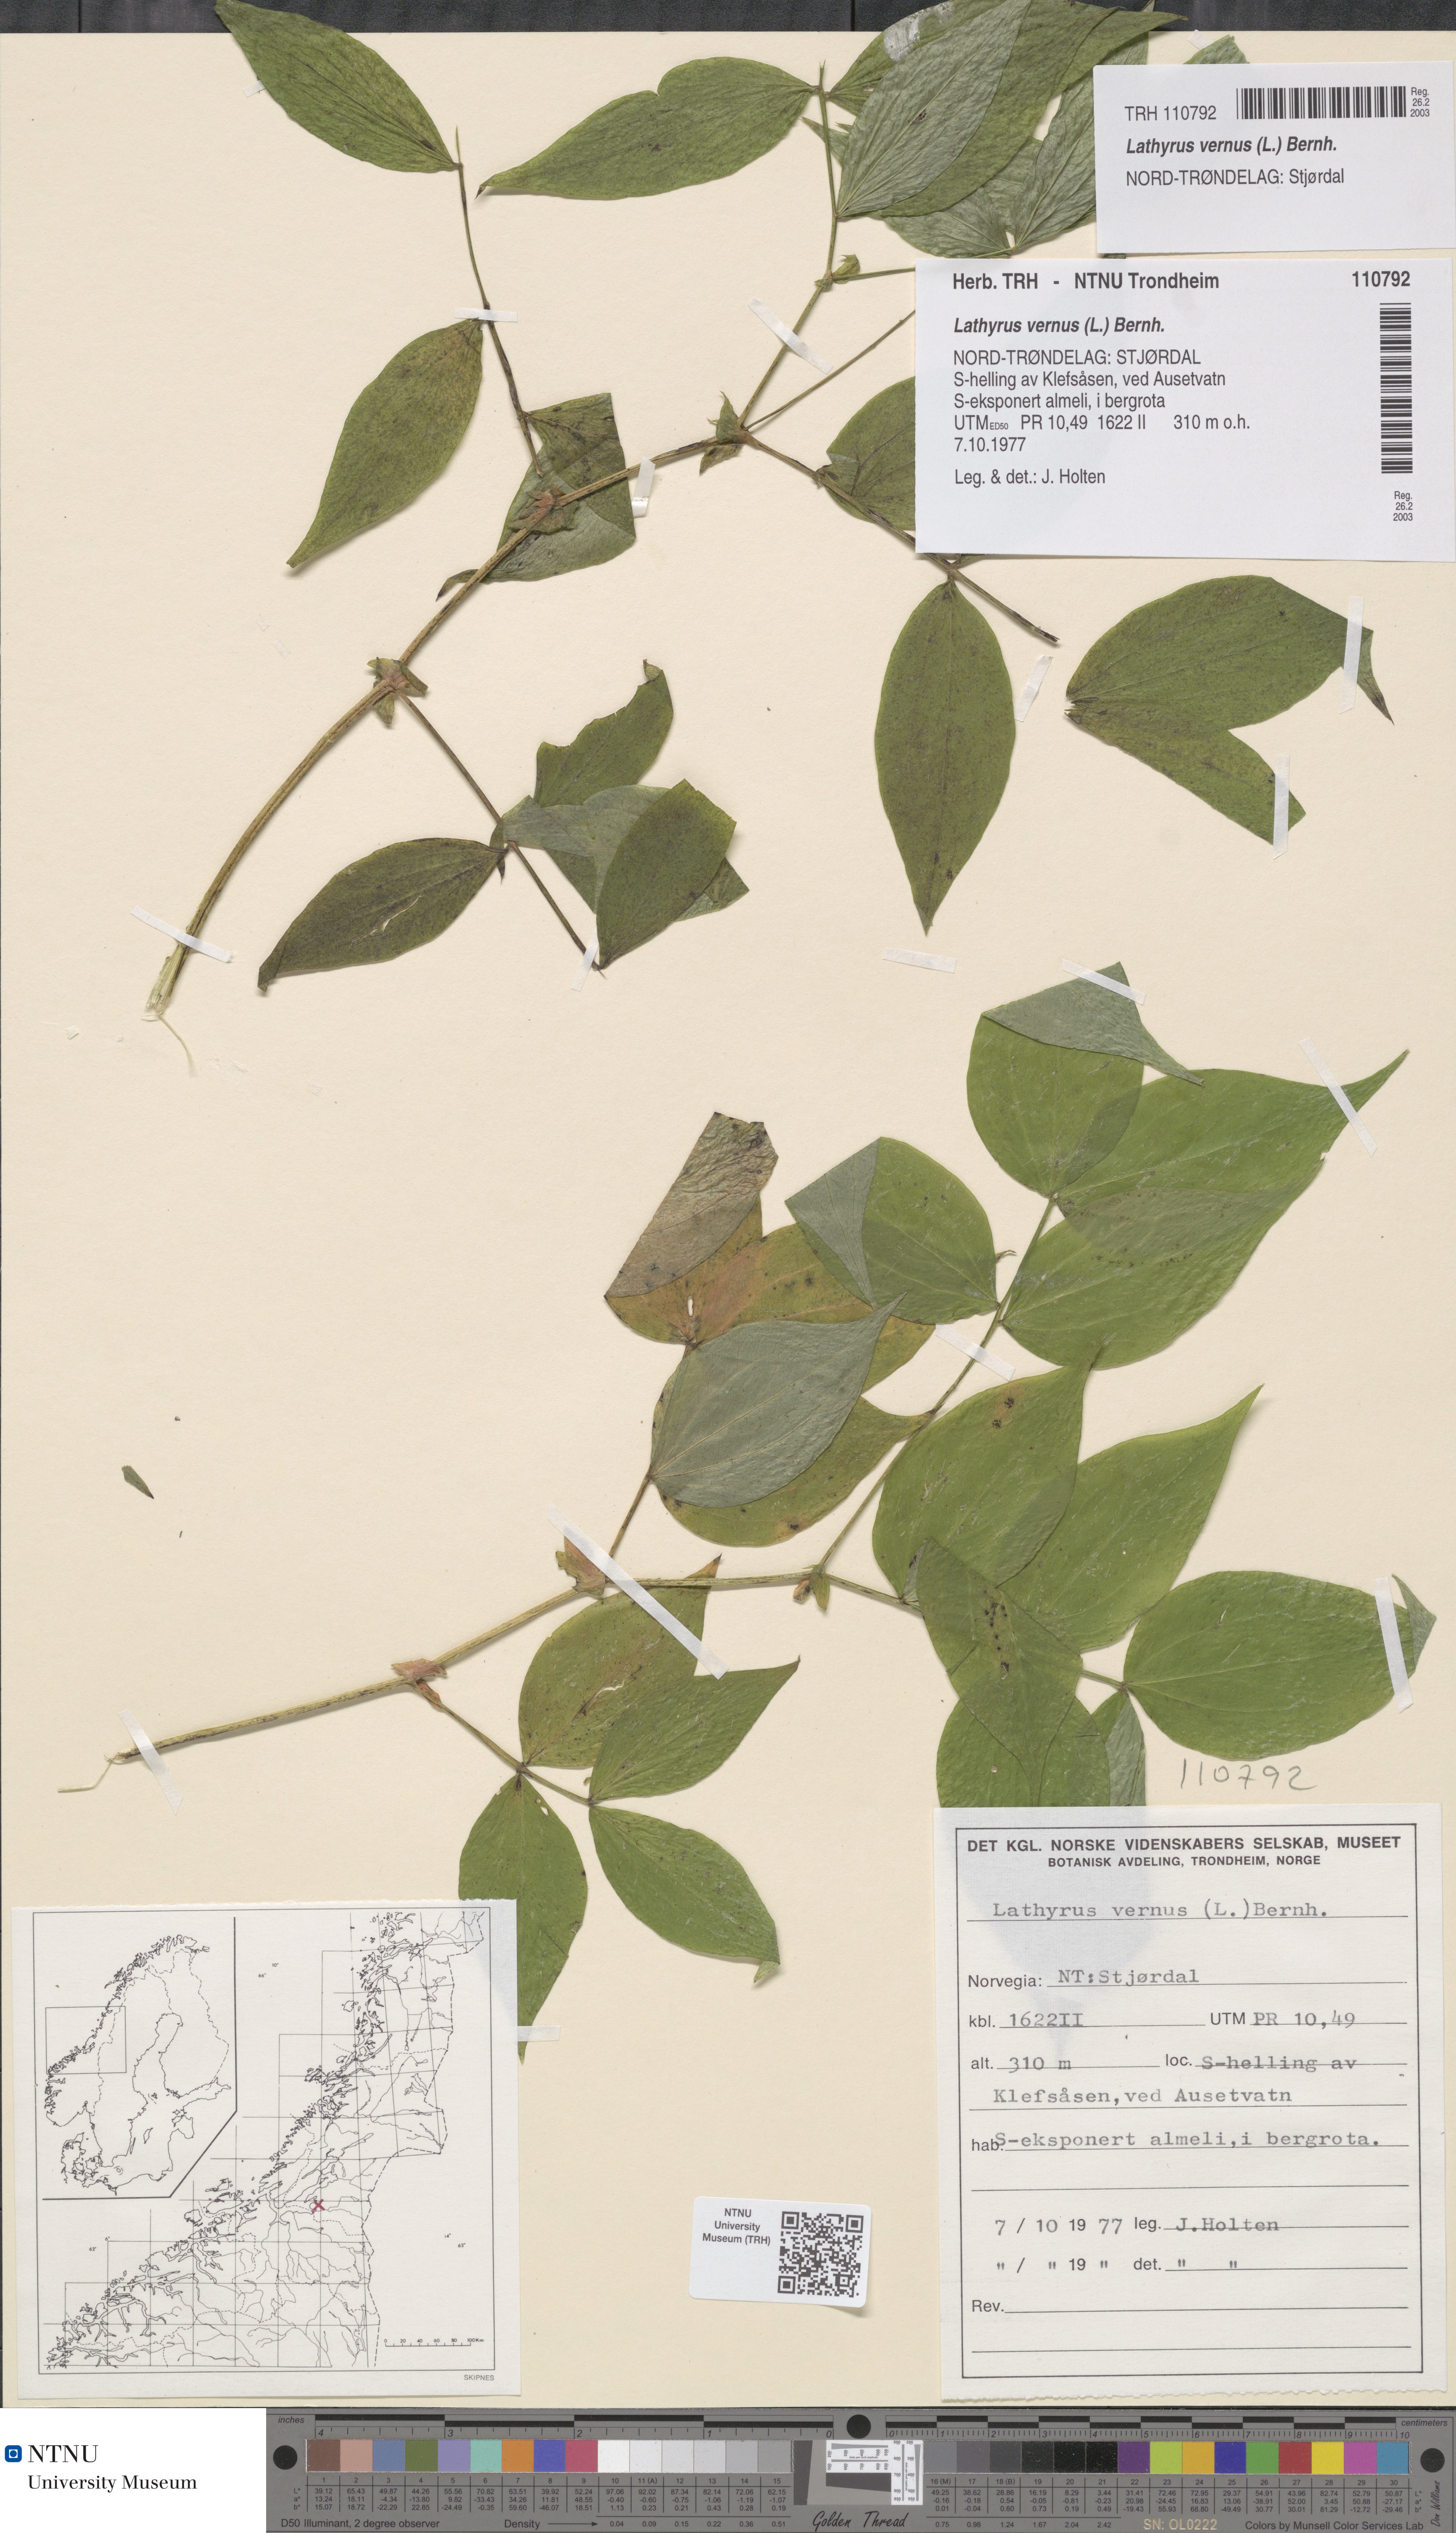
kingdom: Plantae
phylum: Tracheophyta
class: Magnoliopsida
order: Fabales
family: Fabaceae
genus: Lathyrus
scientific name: Lathyrus vernus
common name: Spring pea
